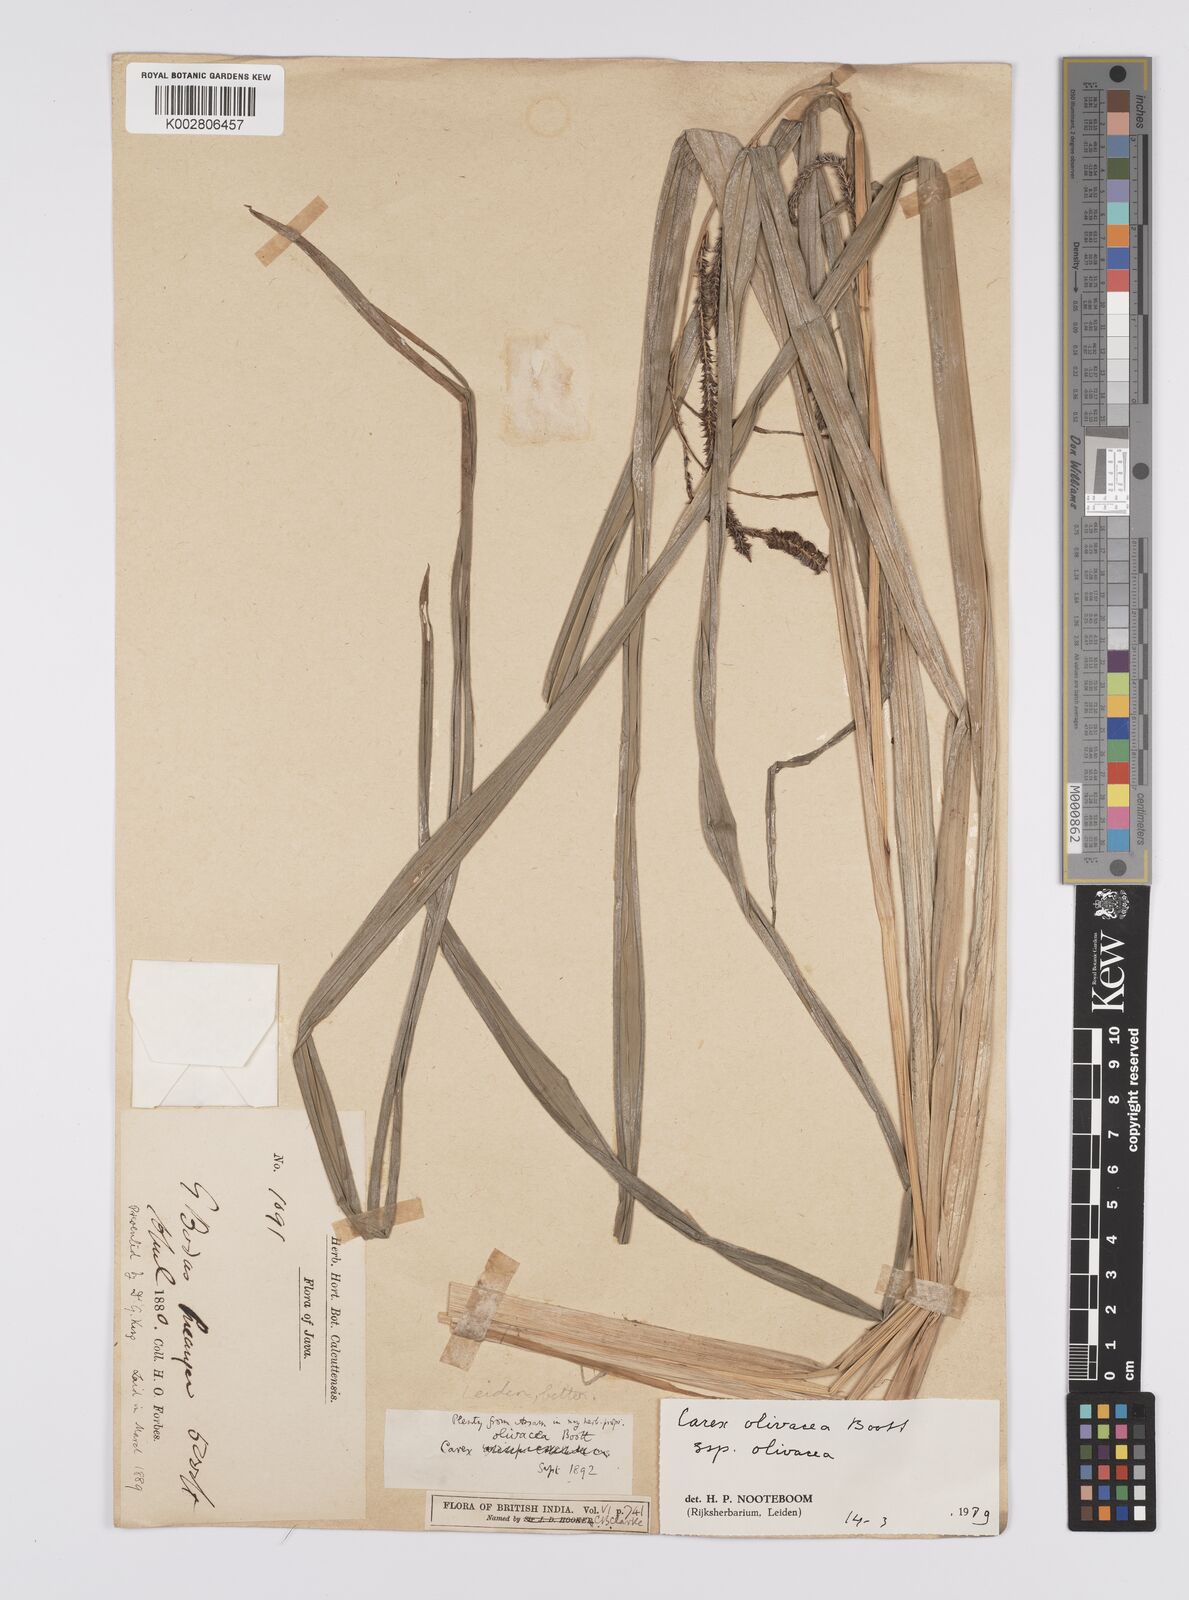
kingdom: Plantae
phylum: Tracheophyta
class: Liliopsida
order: Poales
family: Cyperaceae
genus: Carex
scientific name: Carex olivacea
